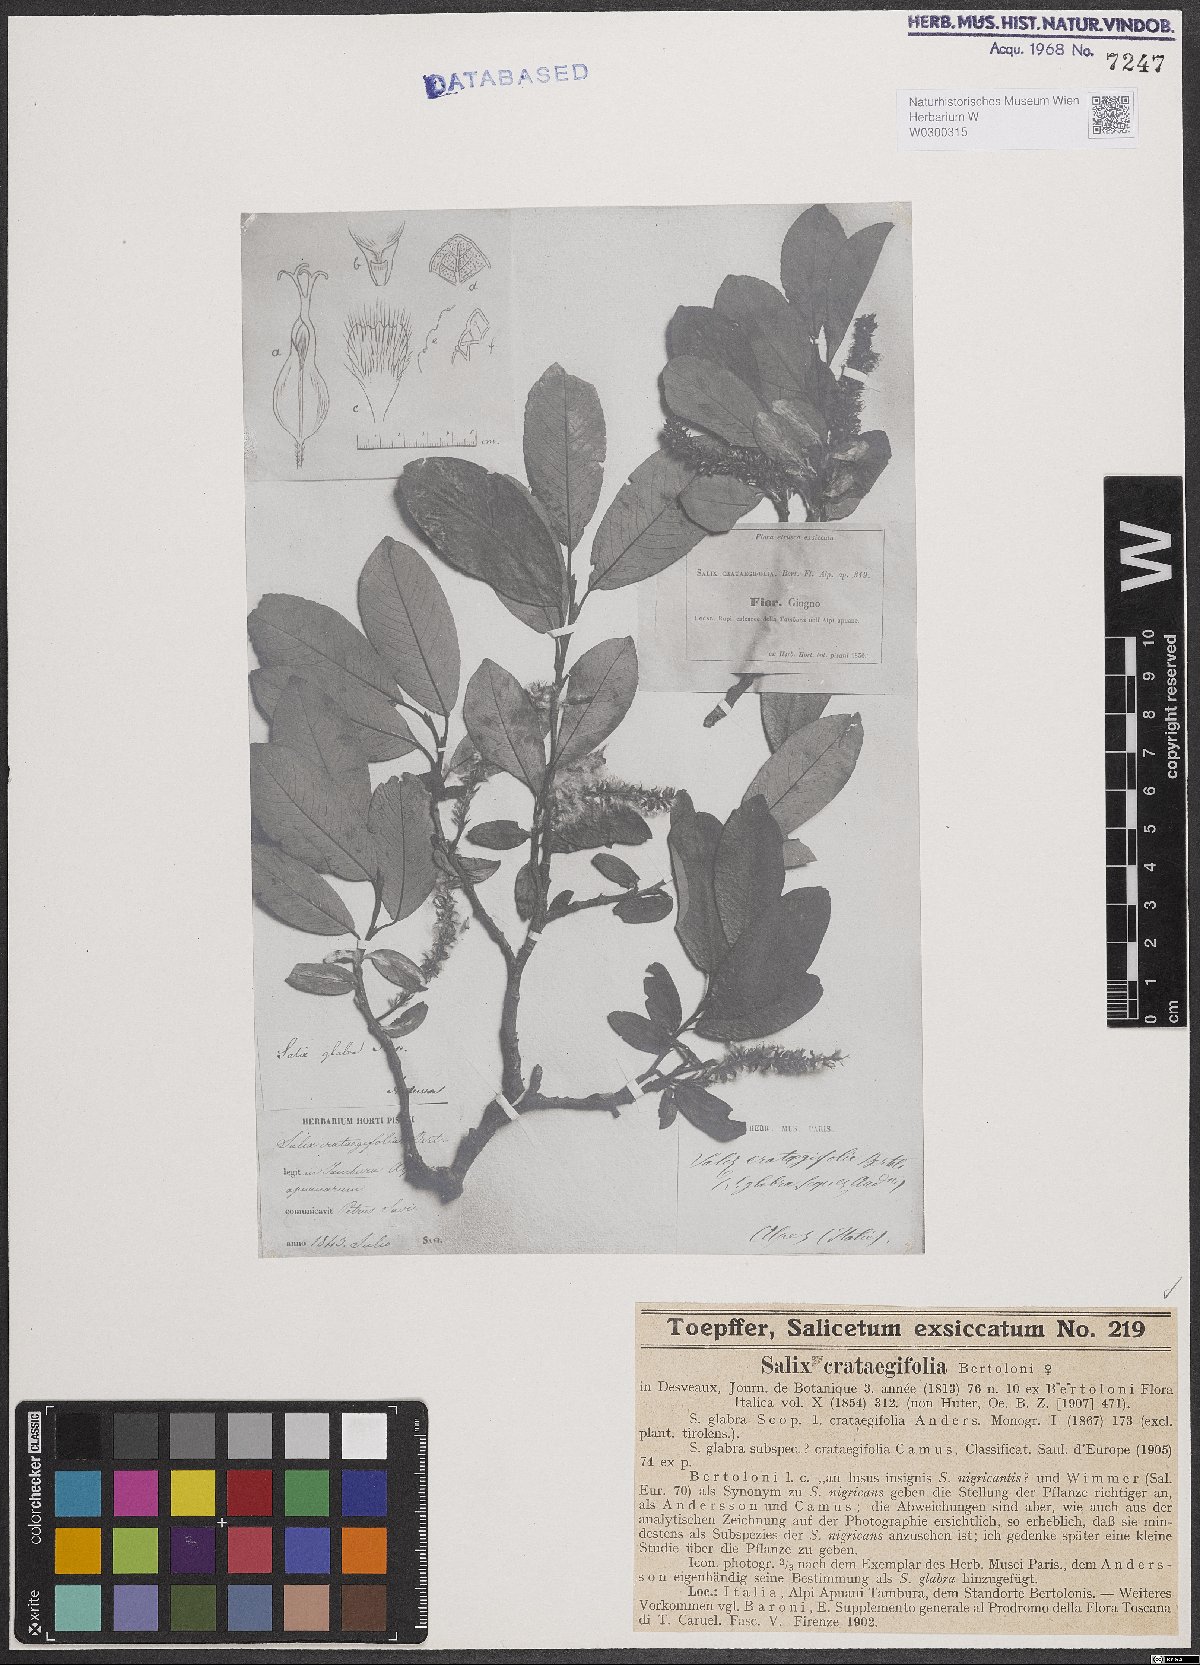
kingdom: Plantae
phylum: Tracheophyta
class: Magnoliopsida
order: Malpighiales
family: Salicaceae
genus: Salix
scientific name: Salix crataegifolia
